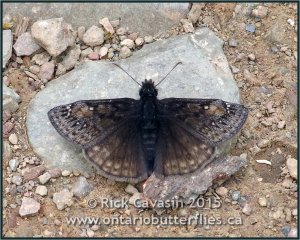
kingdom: Animalia
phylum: Arthropoda
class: Insecta
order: Lepidoptera
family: Hesperiidae
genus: Erynnis
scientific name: Erynnis
